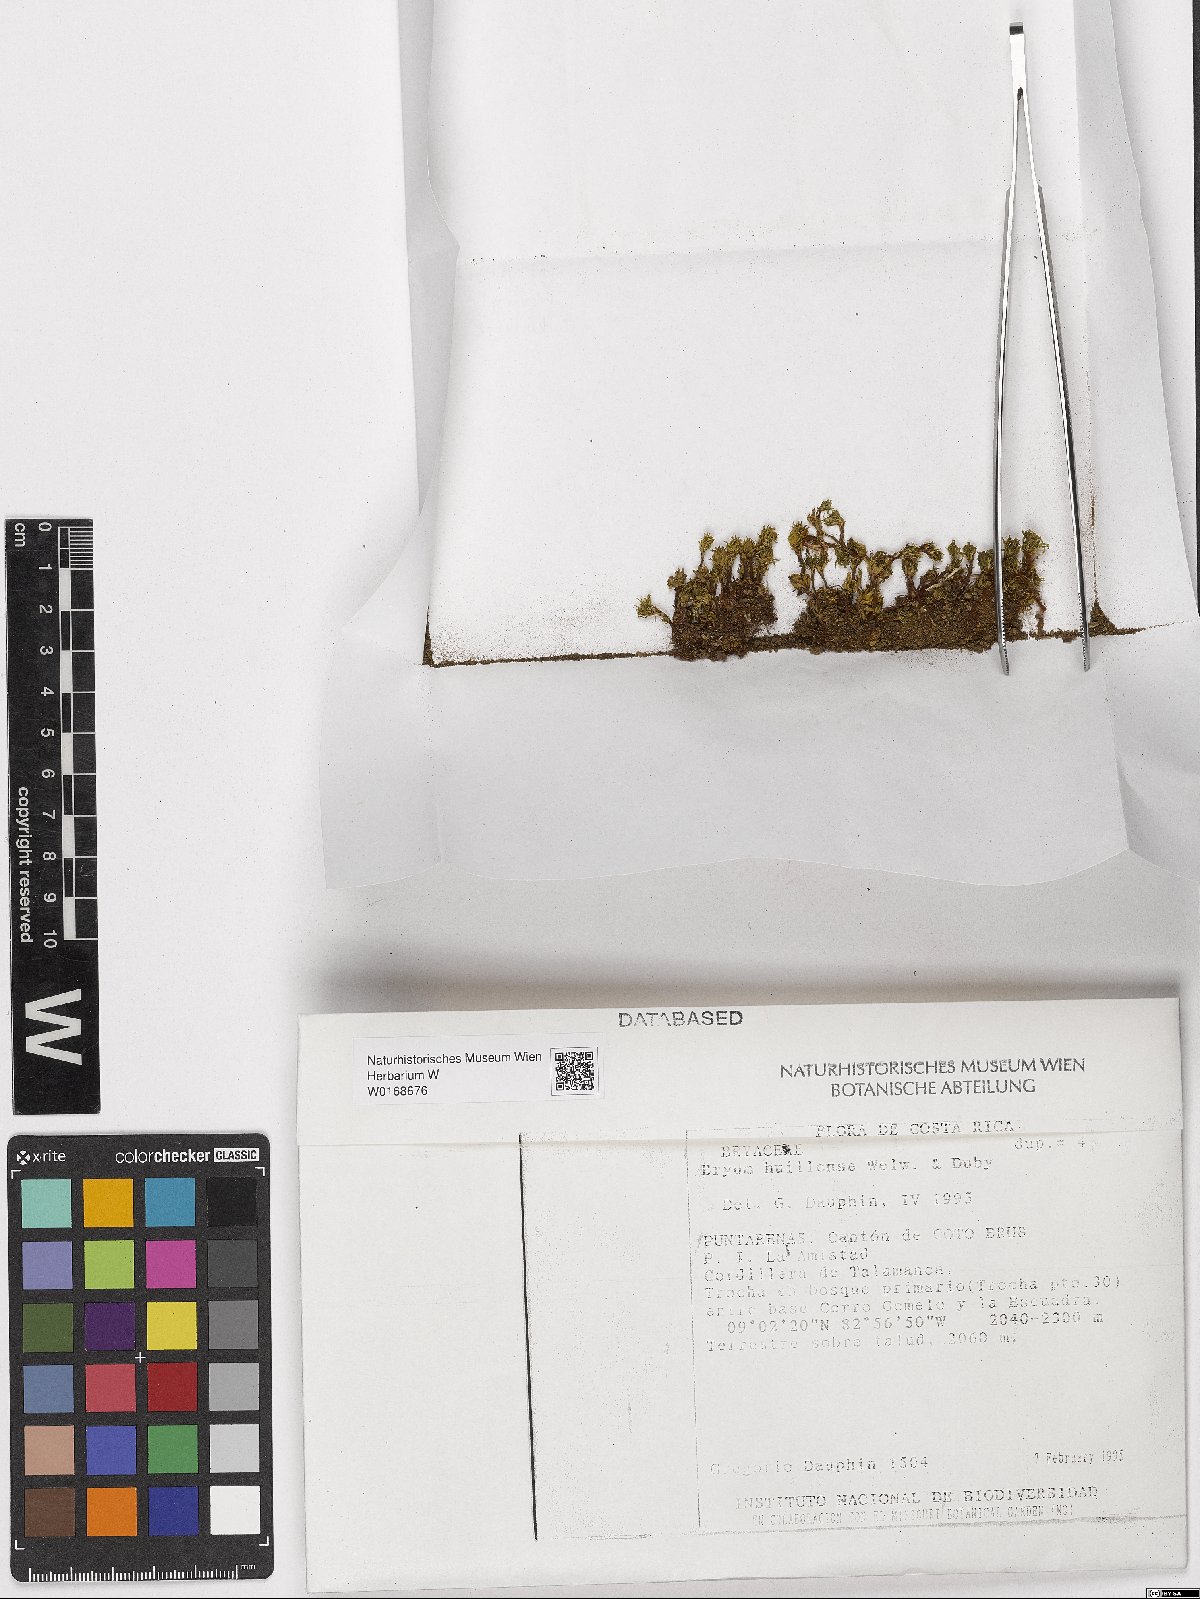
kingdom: Plantae
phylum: Bryophyta
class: Bryopsida
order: Bryales
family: Bryaceae
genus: Rosulabryum
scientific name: Rosulabryum huillense
